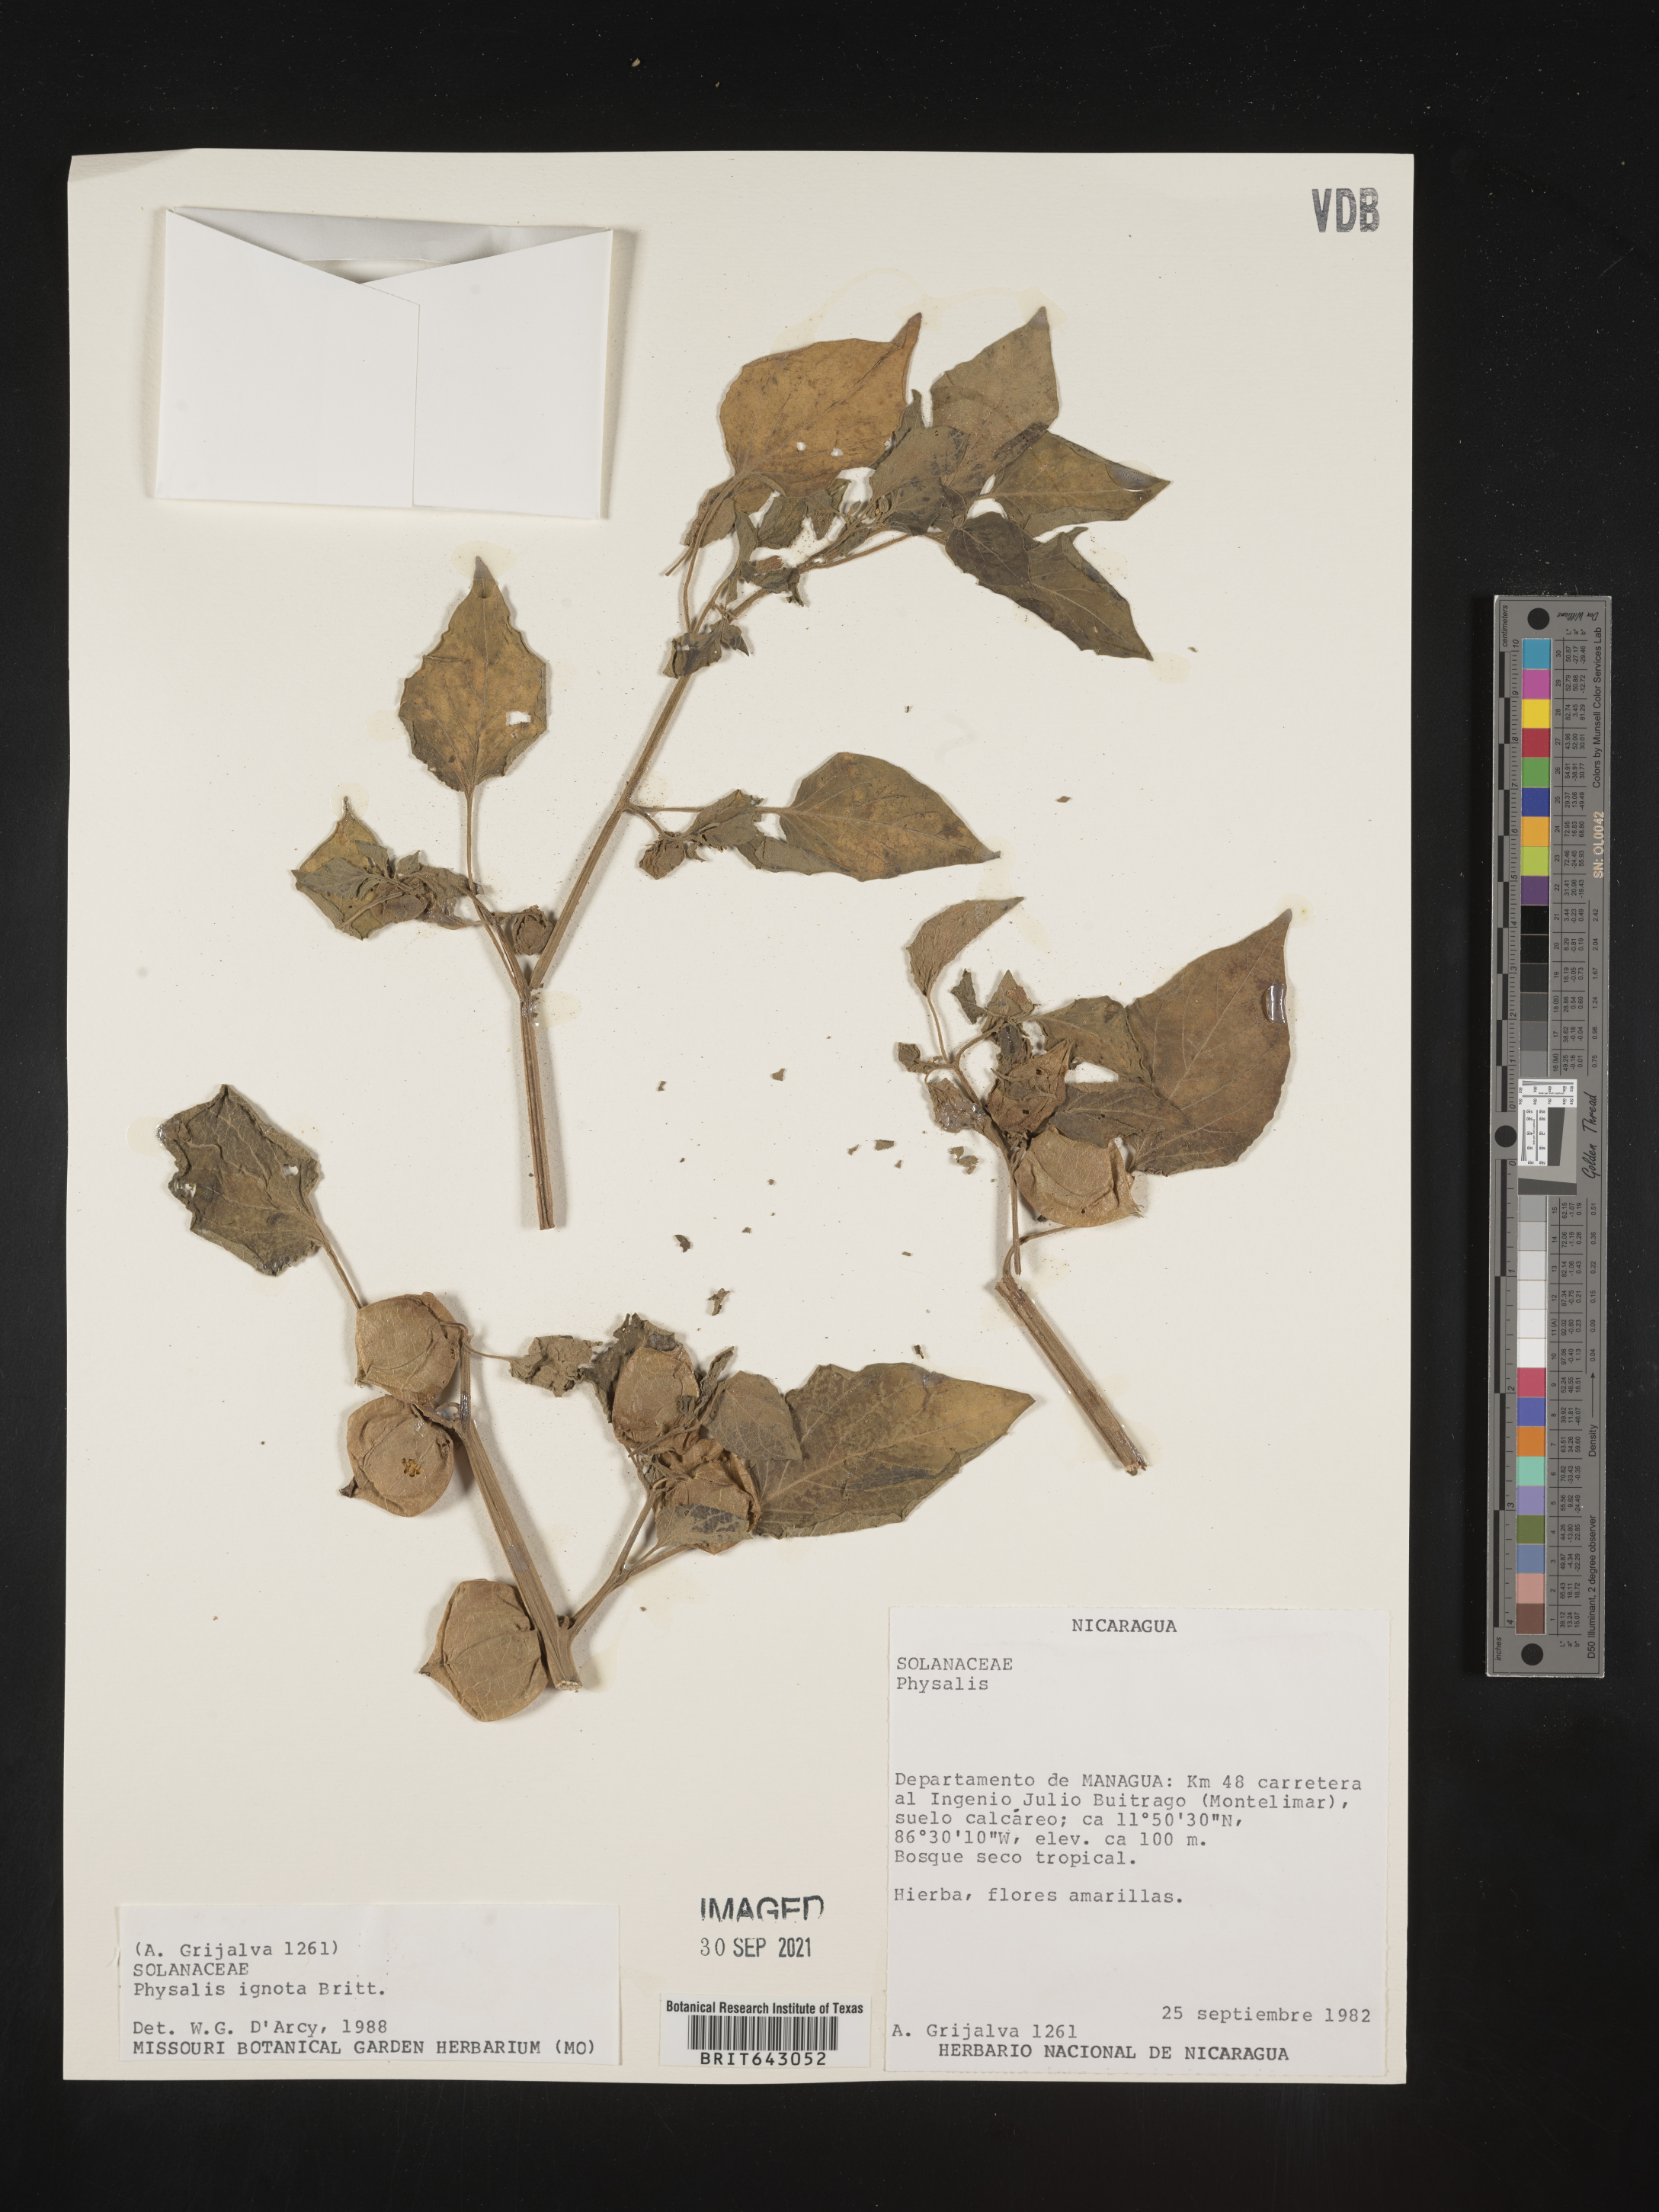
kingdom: Plantae
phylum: Tracheophyta
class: Magnoliopsida
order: Solanales
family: Solanaceae
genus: Physalis
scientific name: Physalis
